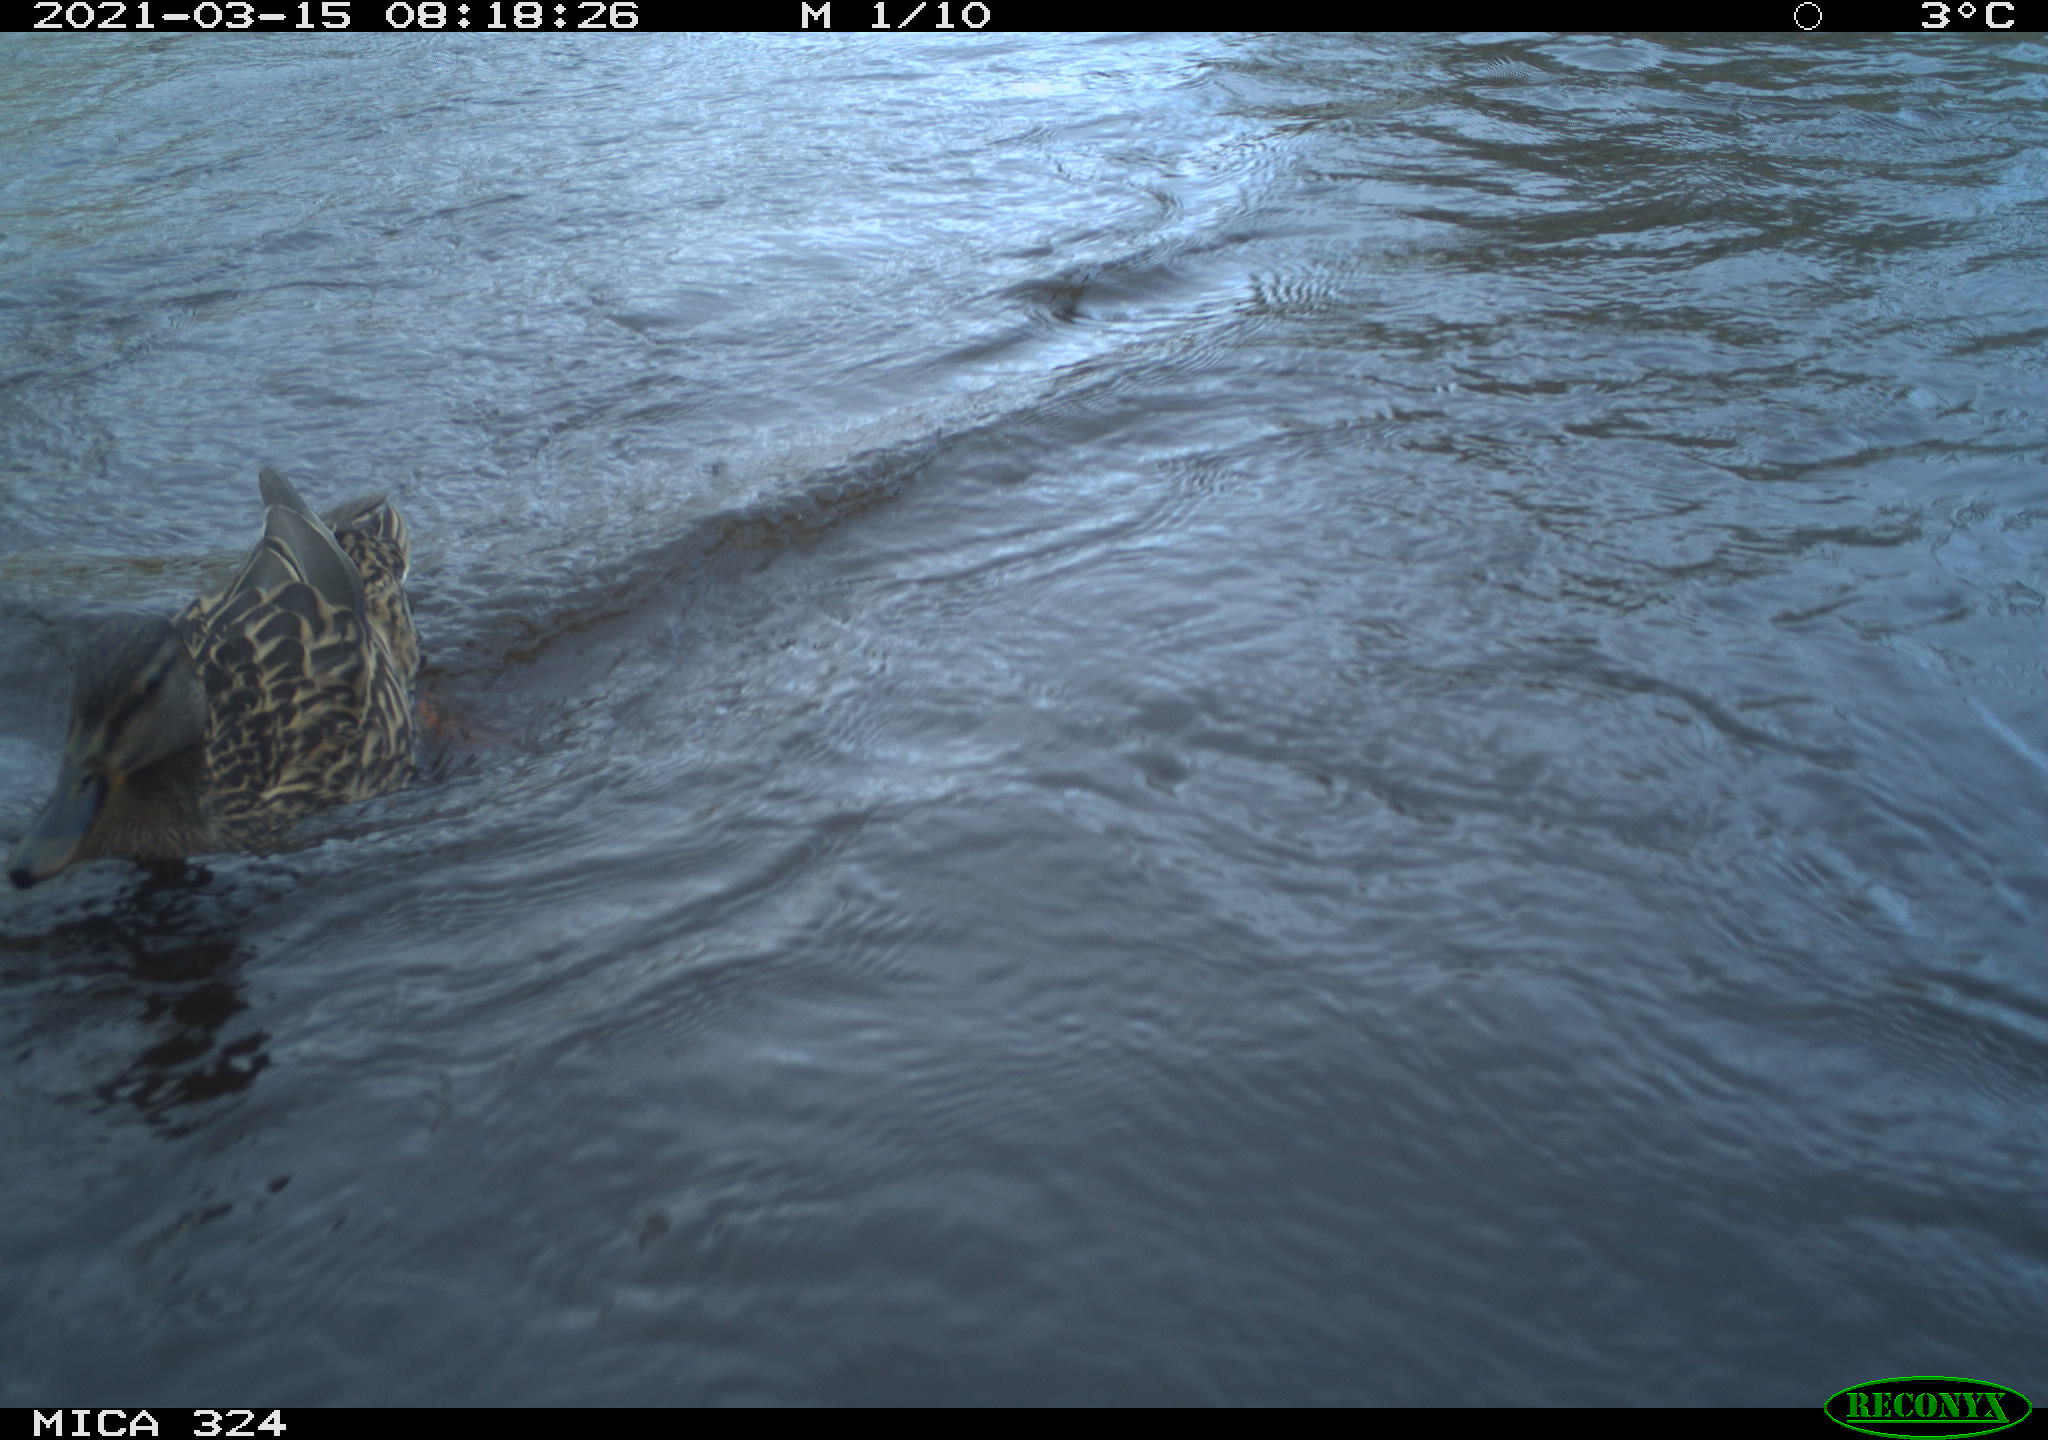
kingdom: Animalia
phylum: Chordata
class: Aves
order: Anseriformes
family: Anatidae
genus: Anas
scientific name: Anas platyrhynchos
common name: Mallard
